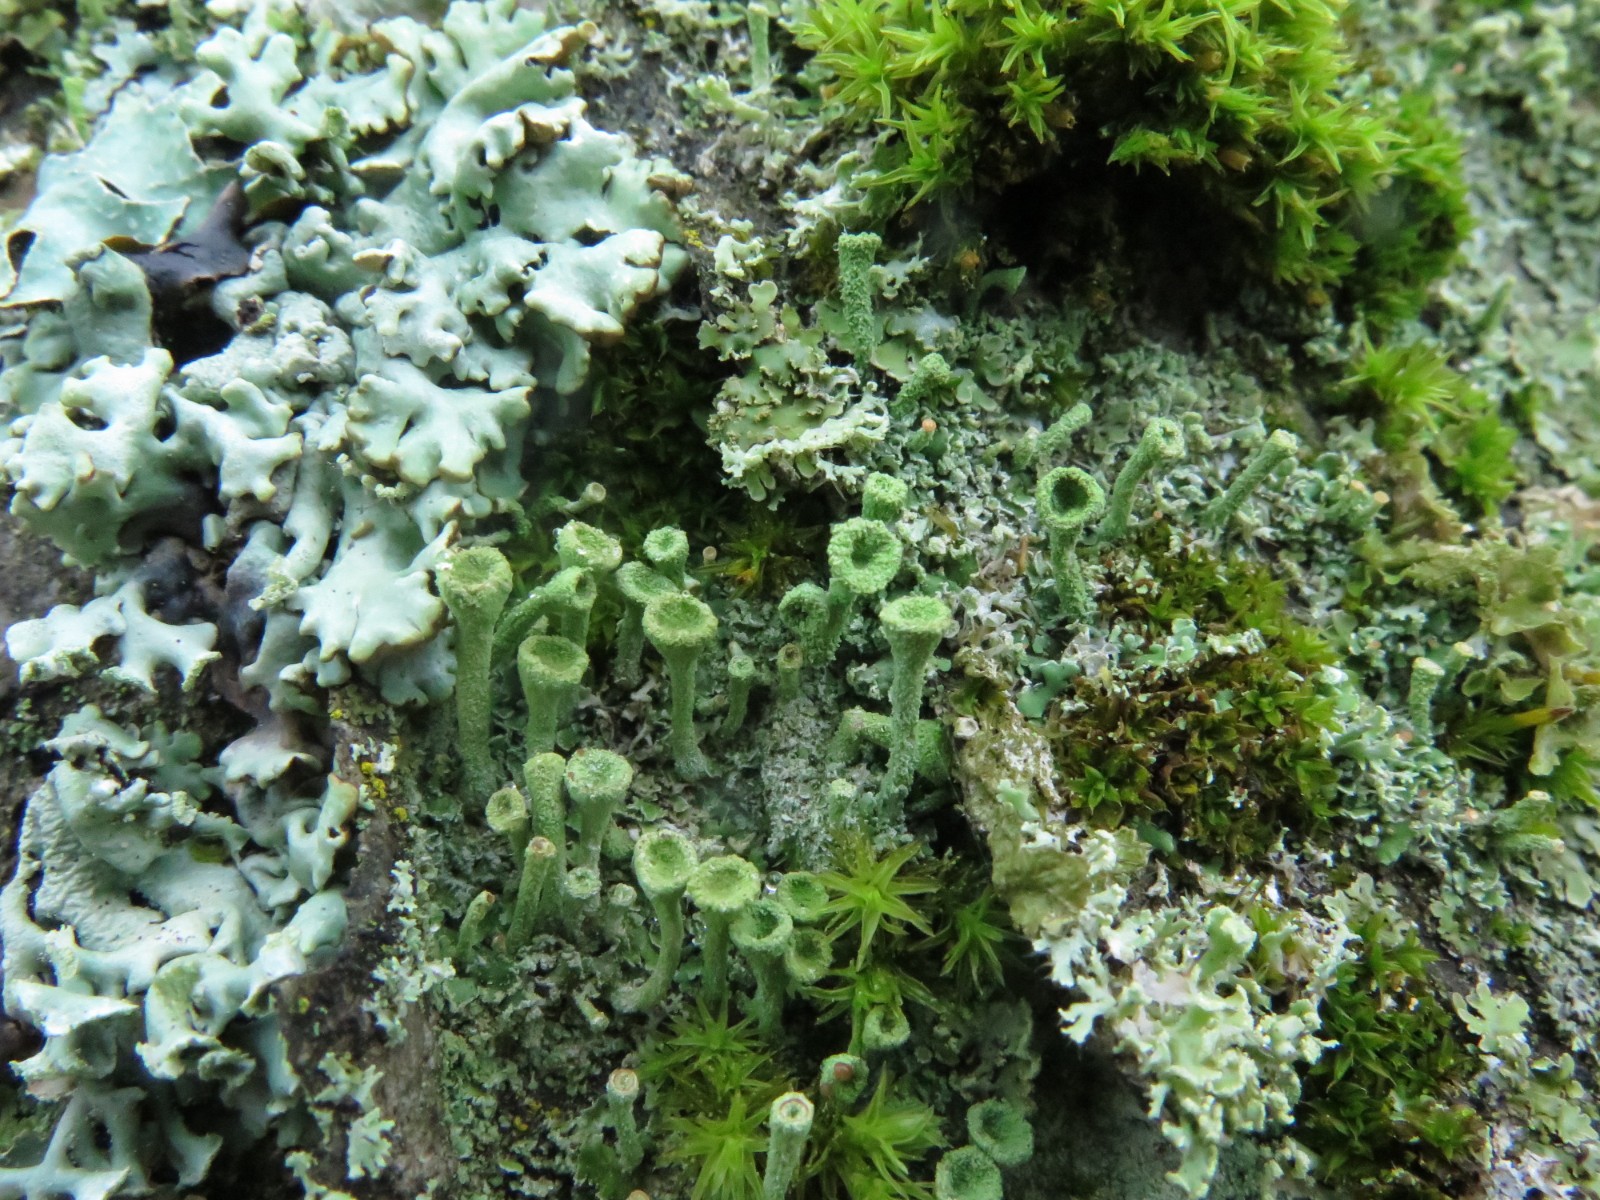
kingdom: Fungi
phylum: Ascomycota
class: Lecanoromycetes
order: Lecanorales
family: Cladoniaceae
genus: Cladonia
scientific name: Cladonia fimbriata
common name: bleggrøn bægerlav
